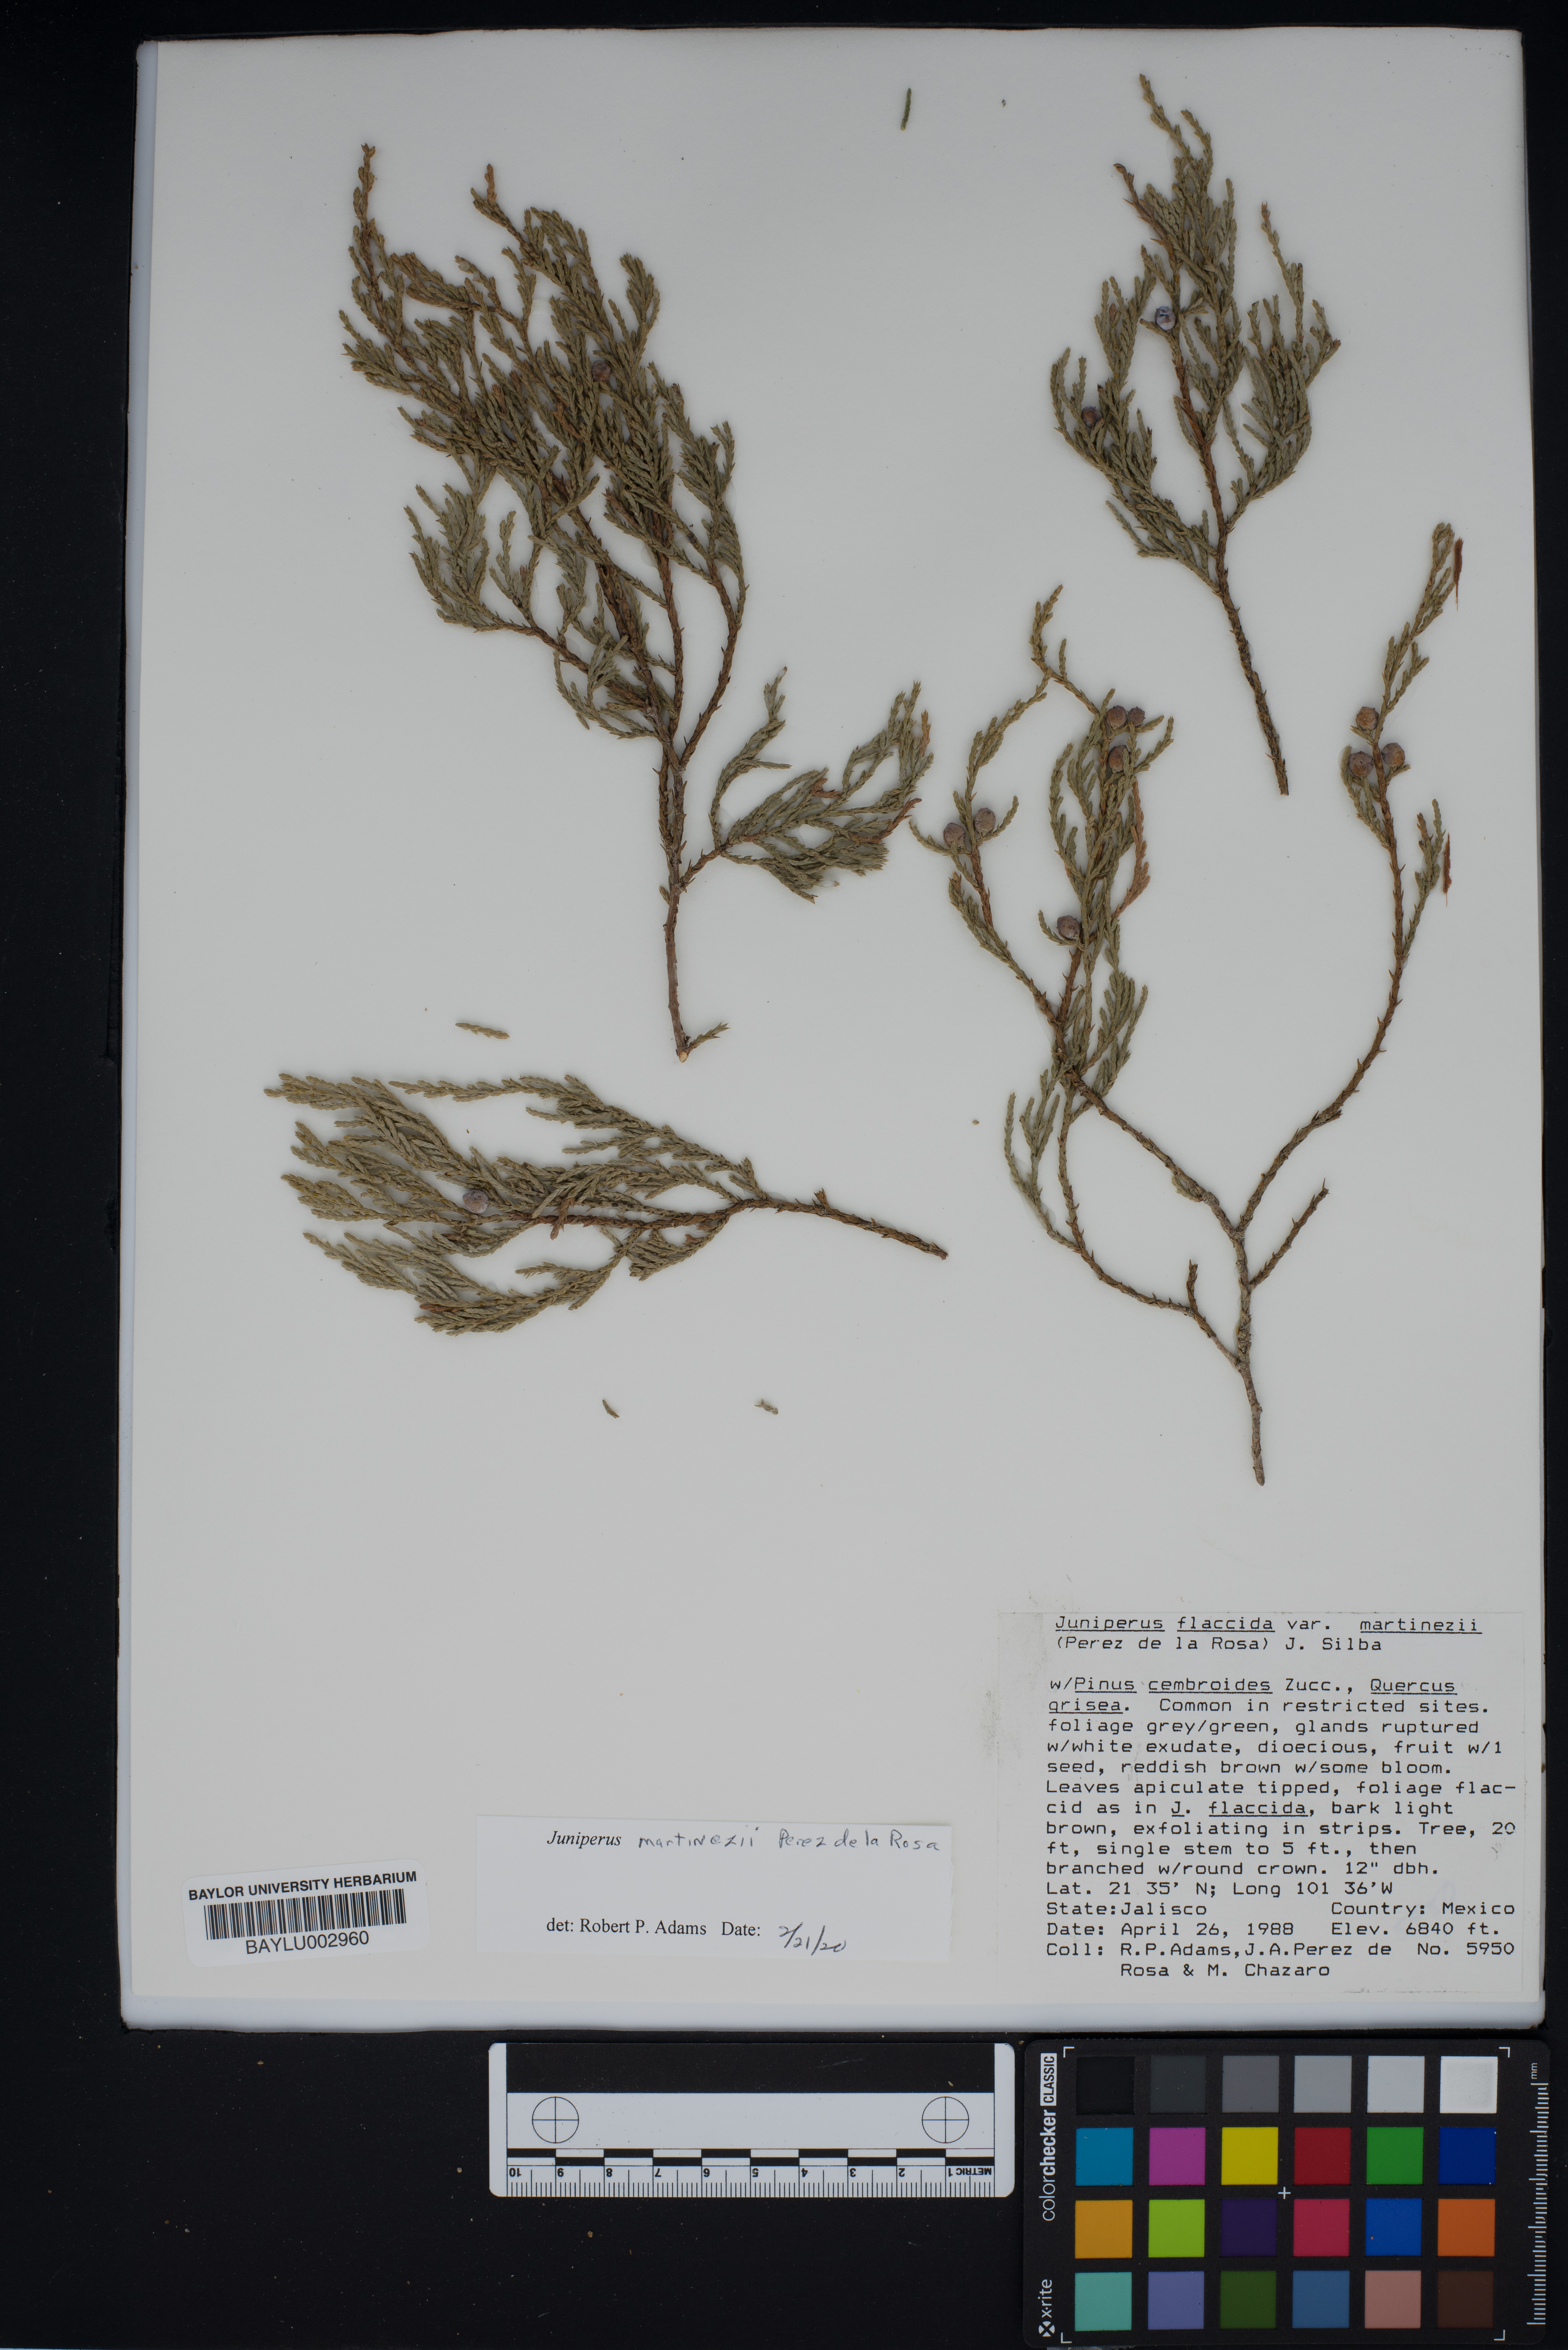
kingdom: Plantae
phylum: Tracheophyta
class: Pinopsida
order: Pinales
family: Cupressaceae
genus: Juniperus
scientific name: Juniperus flaccida
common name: Drooping juniper
